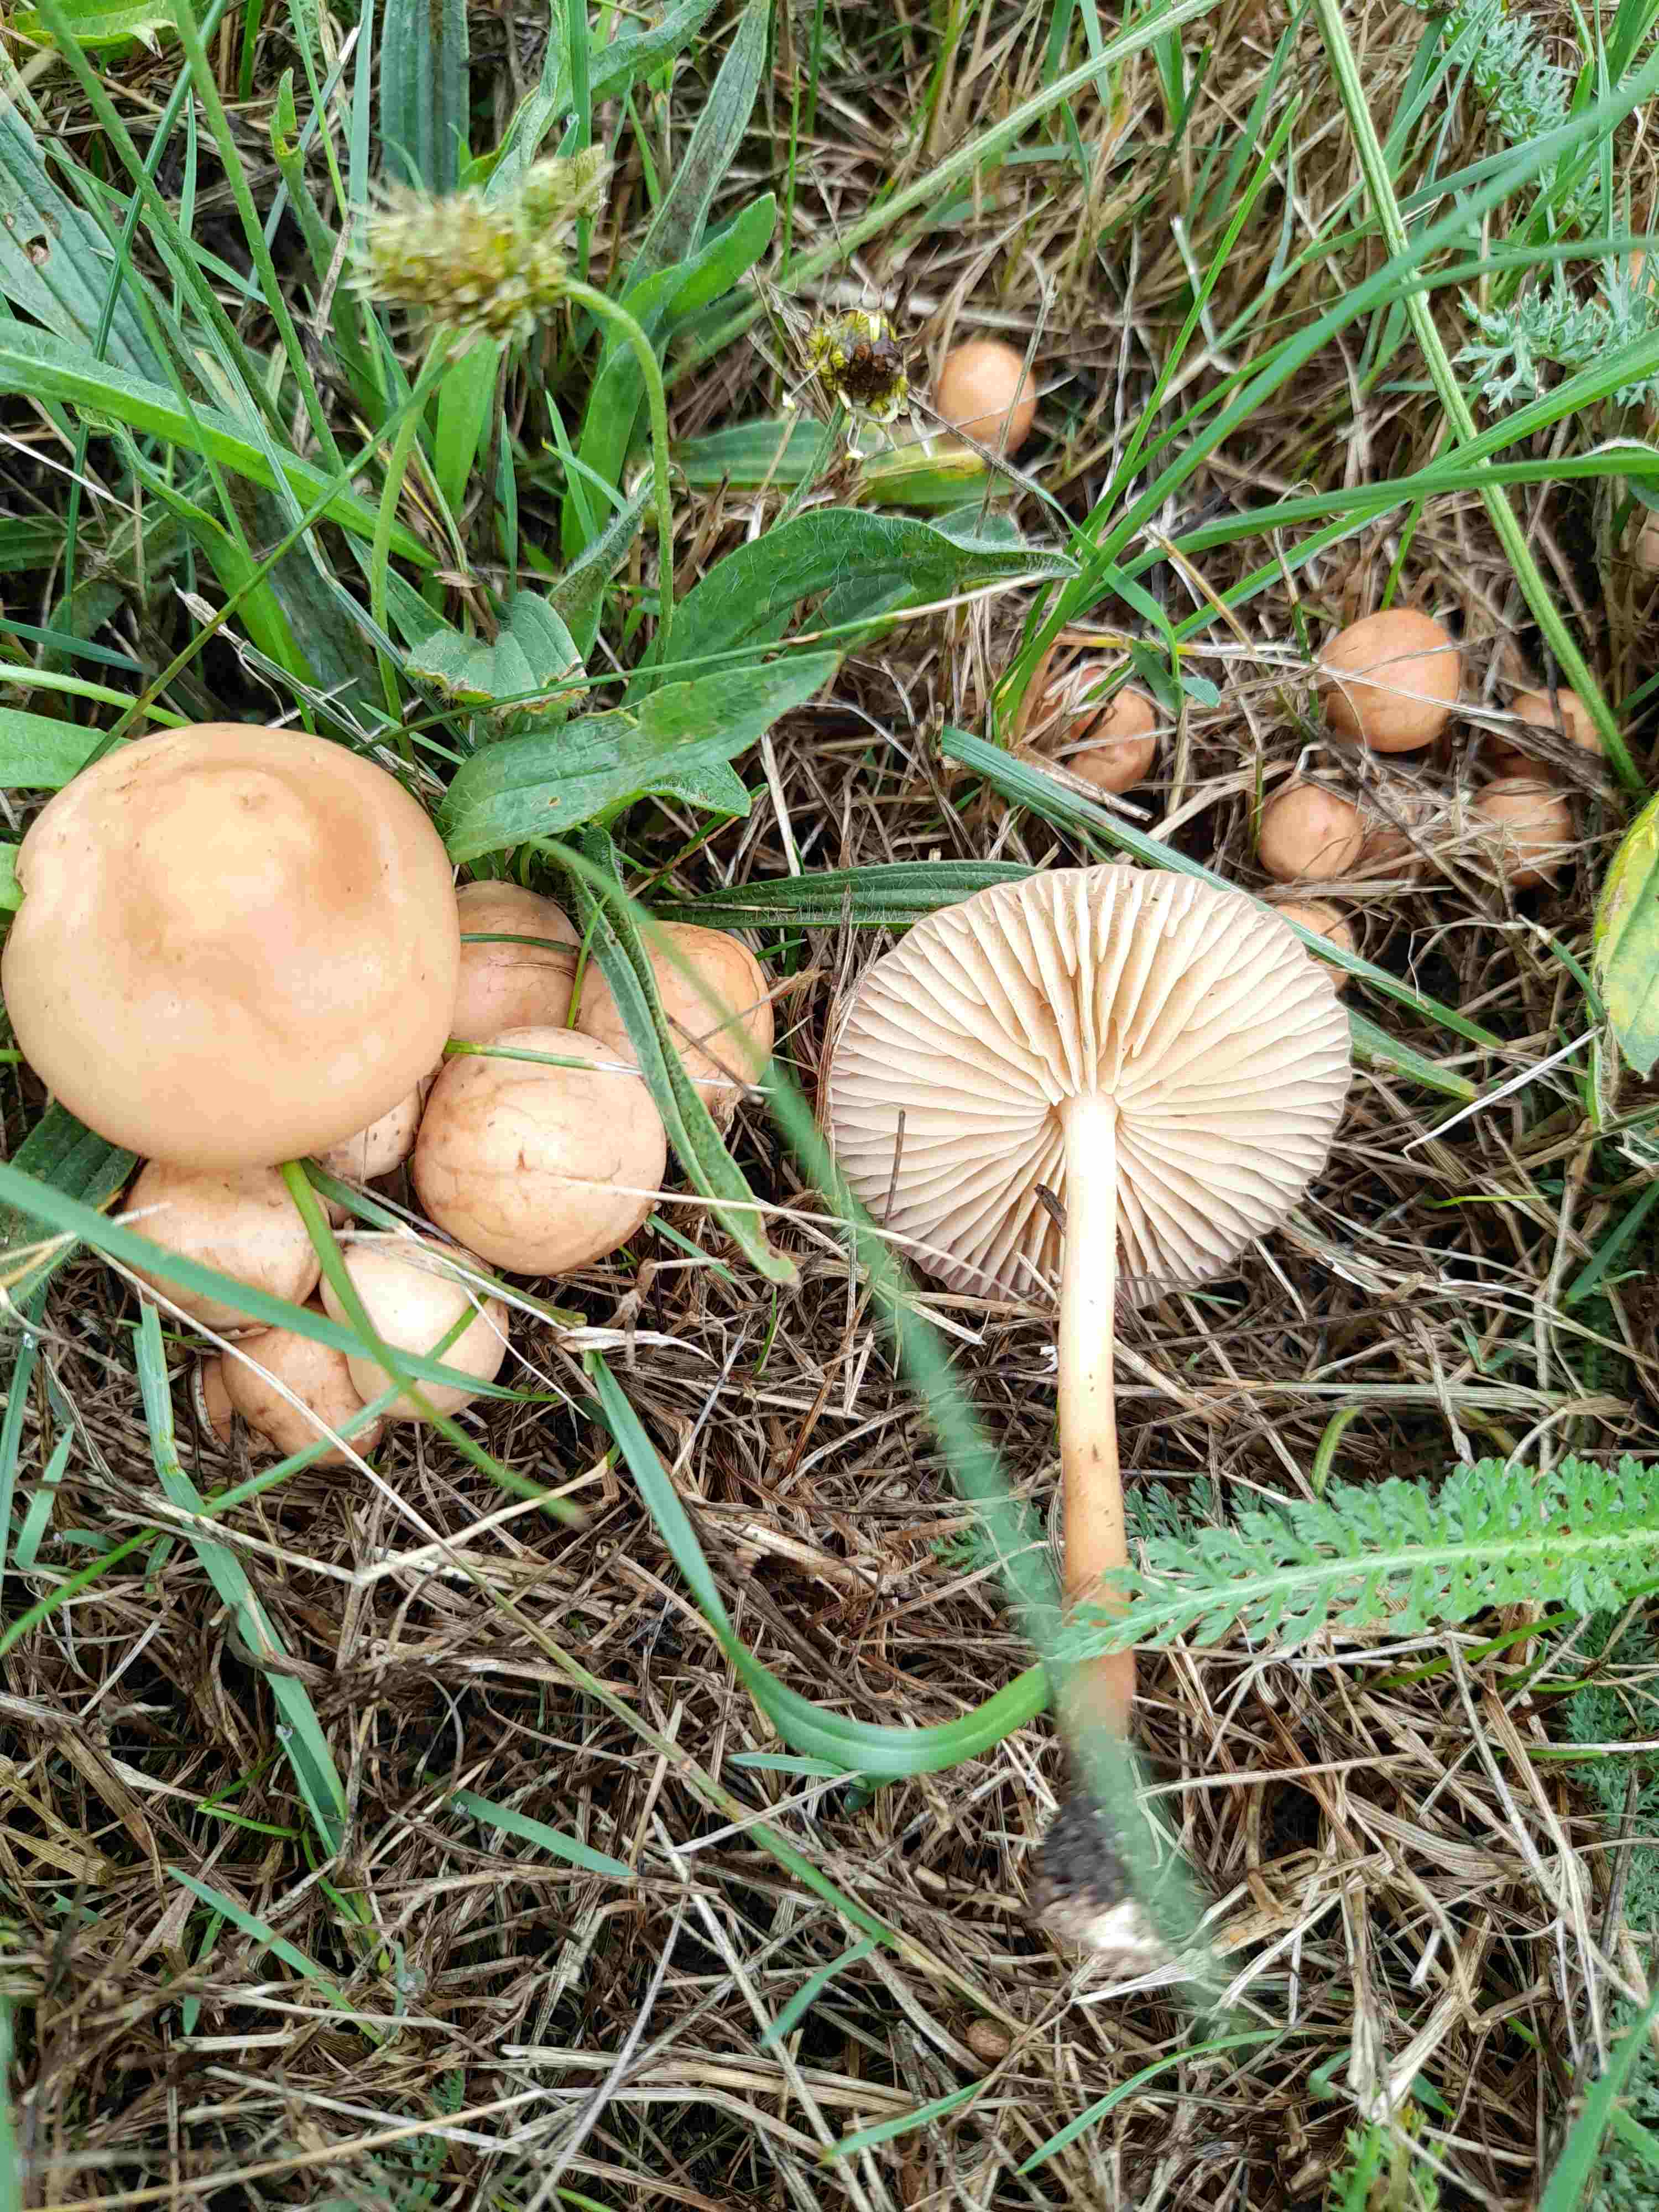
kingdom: Fungi
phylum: Basidiomycota
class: Agaricomycetes
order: Agaricales
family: Marasmiaceae
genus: Marasmius
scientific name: Marasmius oreades
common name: elledans-bruskhat
